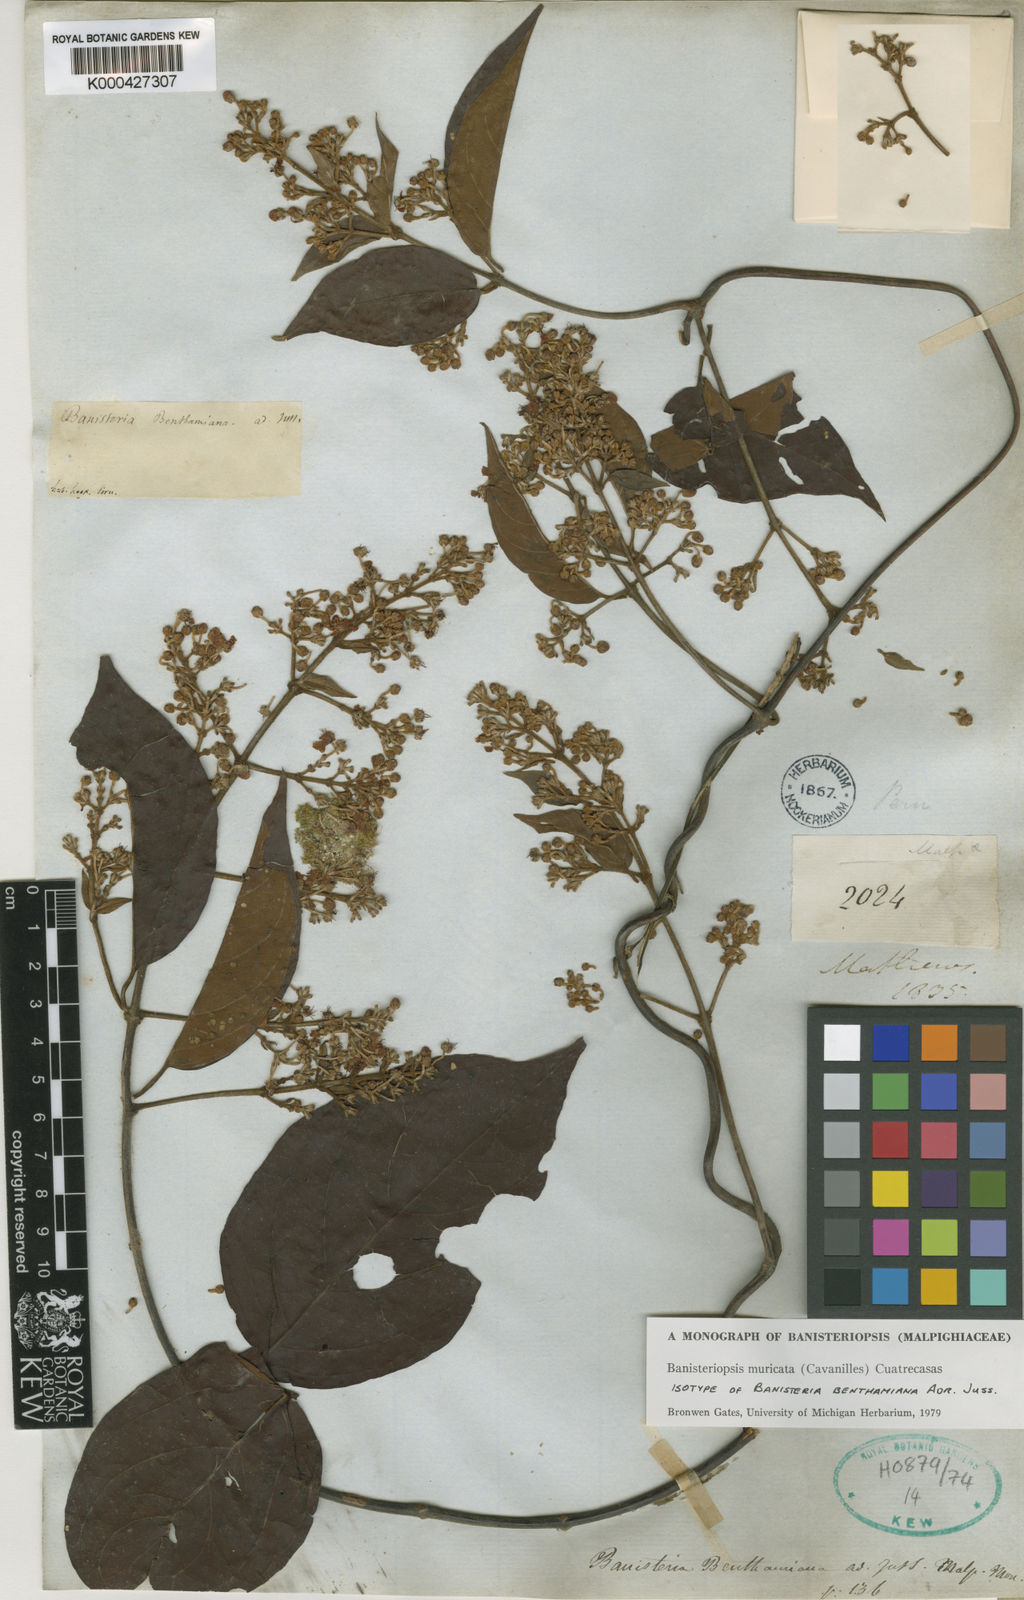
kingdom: Plantae
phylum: Tracheophyta
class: Magnoliopsida
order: Malpighiales
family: Malpighiaceae
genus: Banisteriopsis
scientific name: Banisteriopsis muricata
